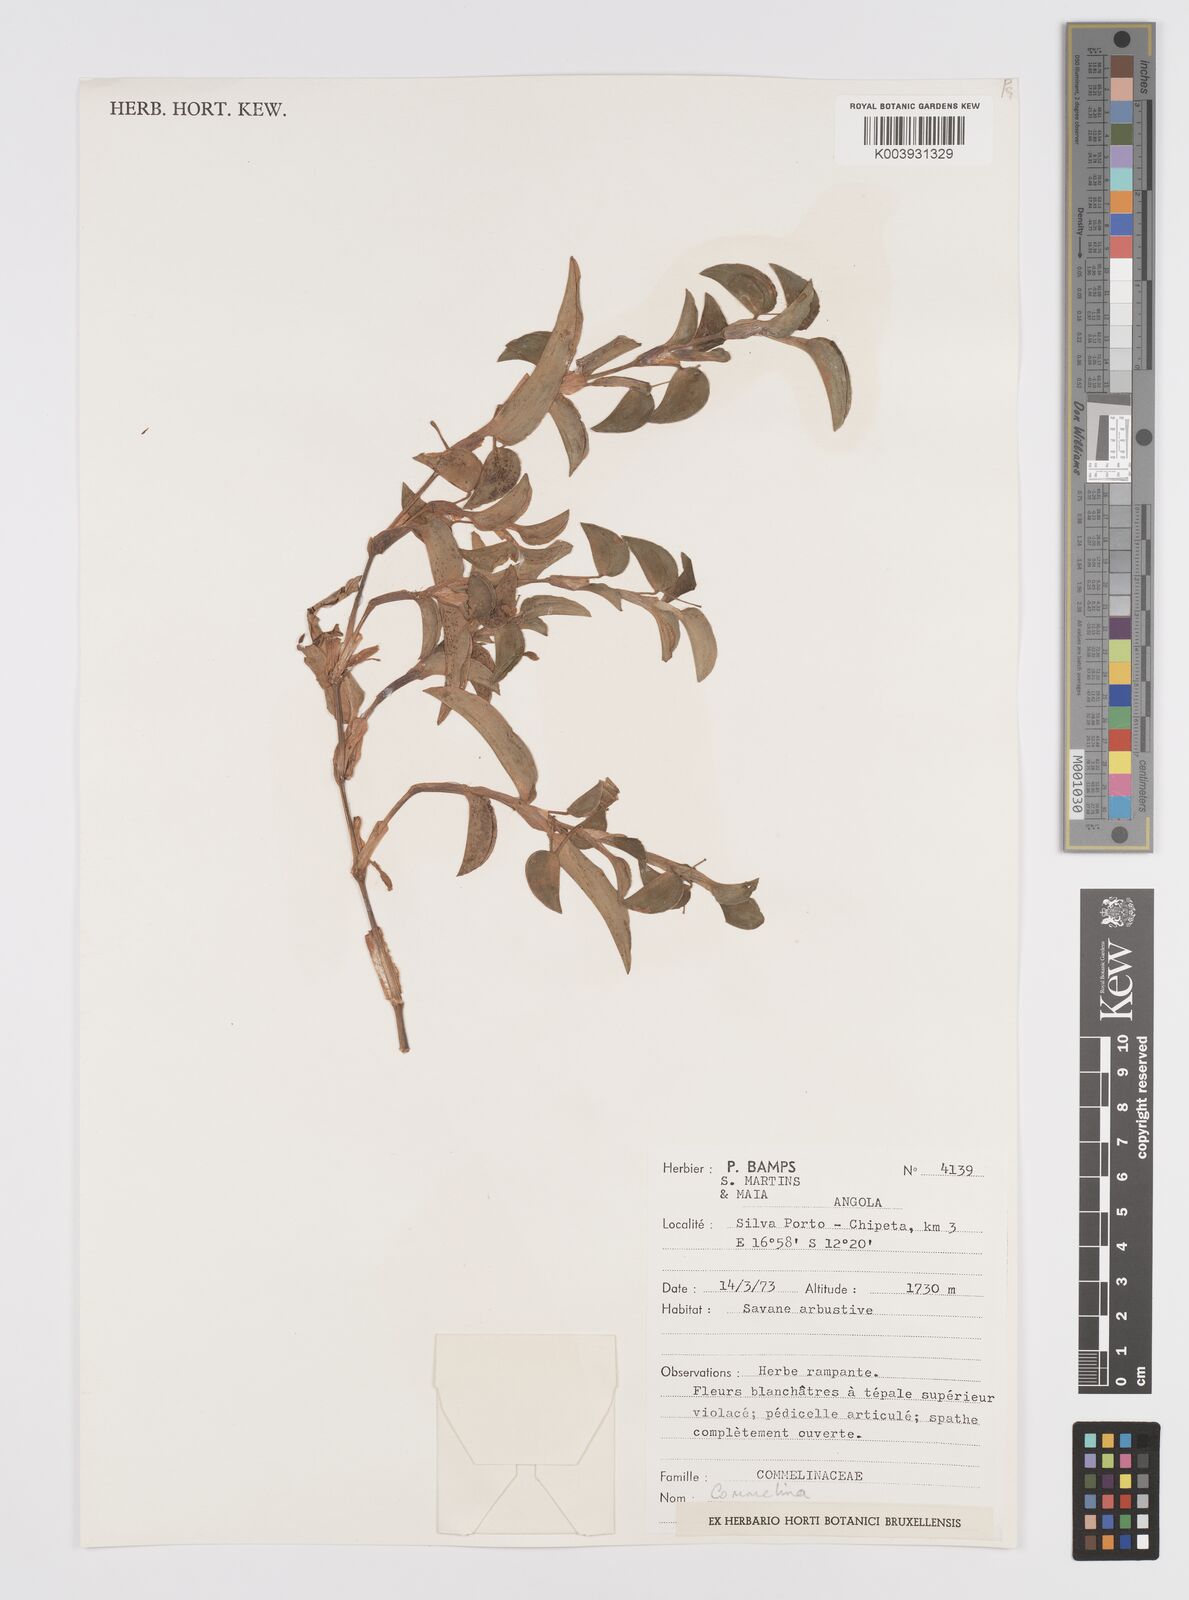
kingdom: Plantae
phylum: Tracheophyta
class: Liliopsida
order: Commelinales
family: Commelinaceae
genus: Commelina
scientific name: Commelina
